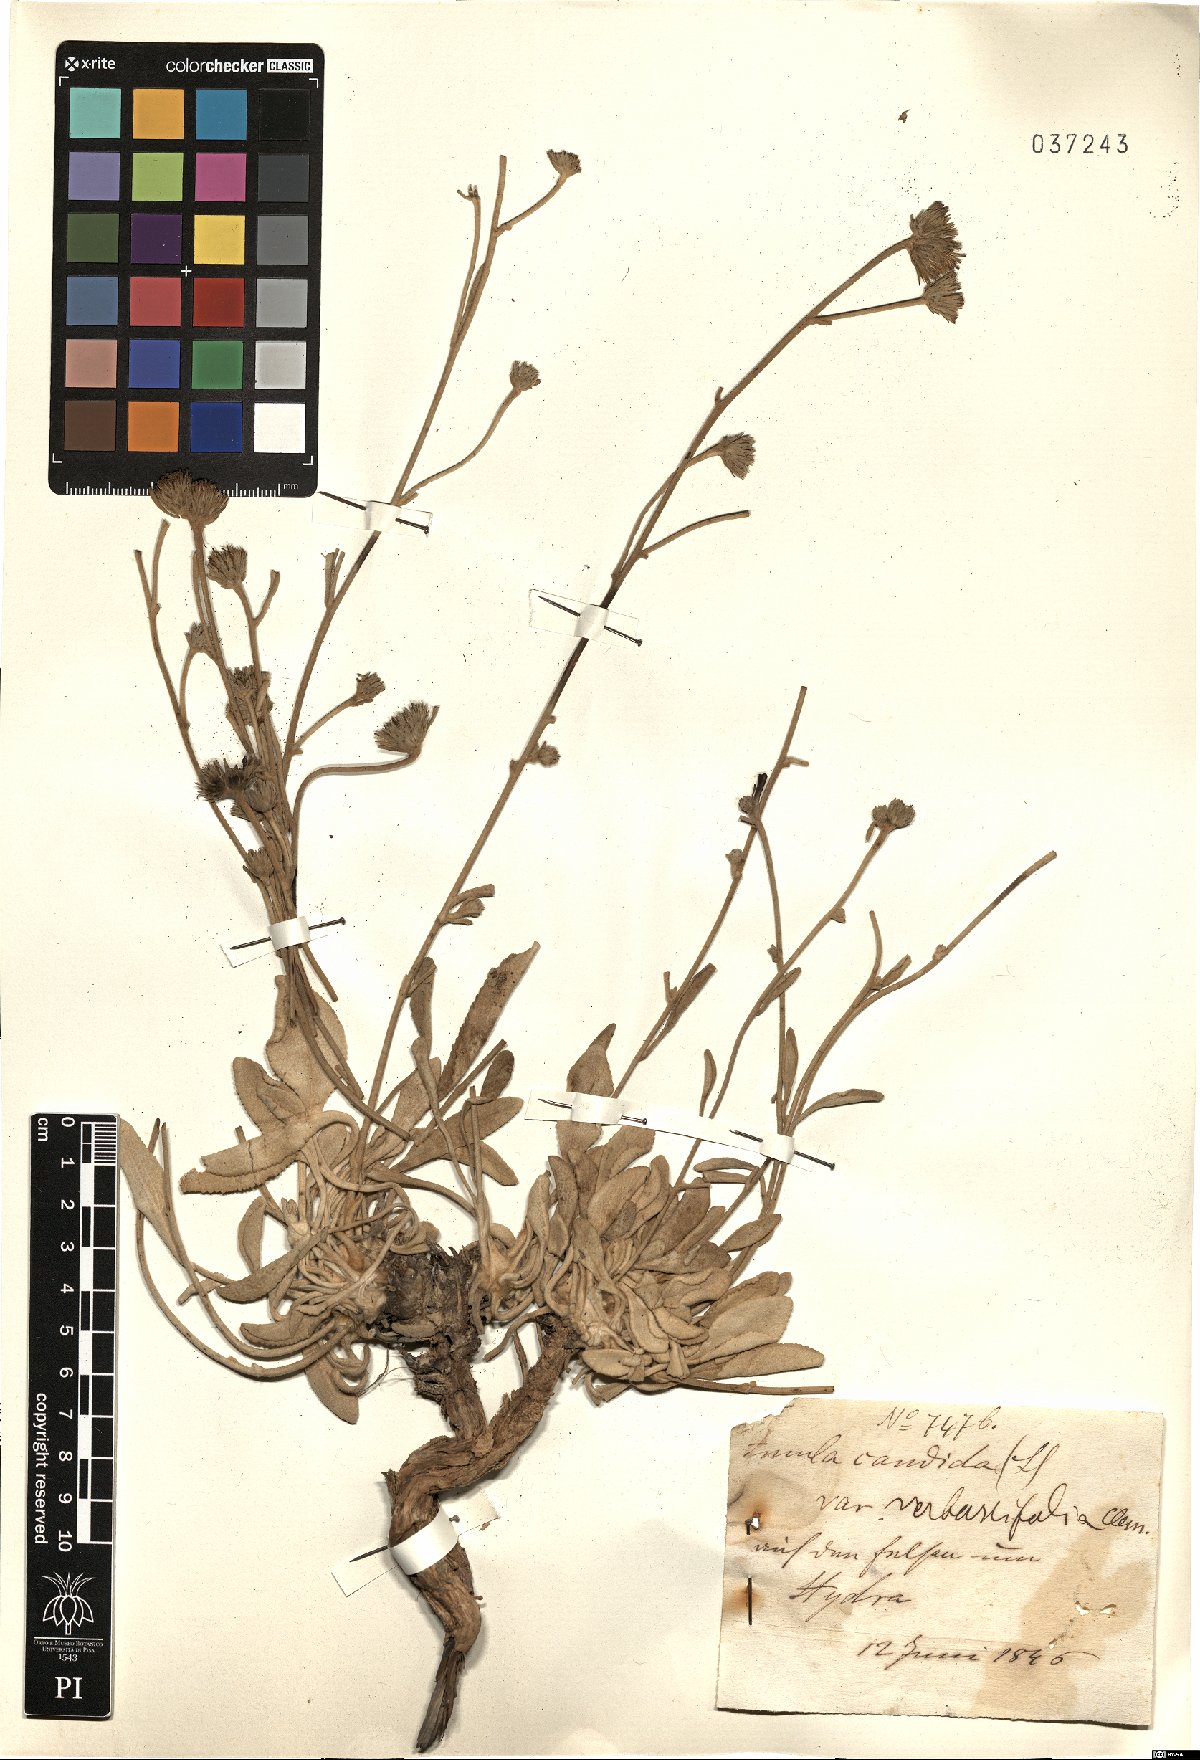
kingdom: Plantae
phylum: Tracheophyta
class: Magnoliopsida
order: Asterales
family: Asteraceae
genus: Pentanema
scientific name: Pentanema verbascifolium
